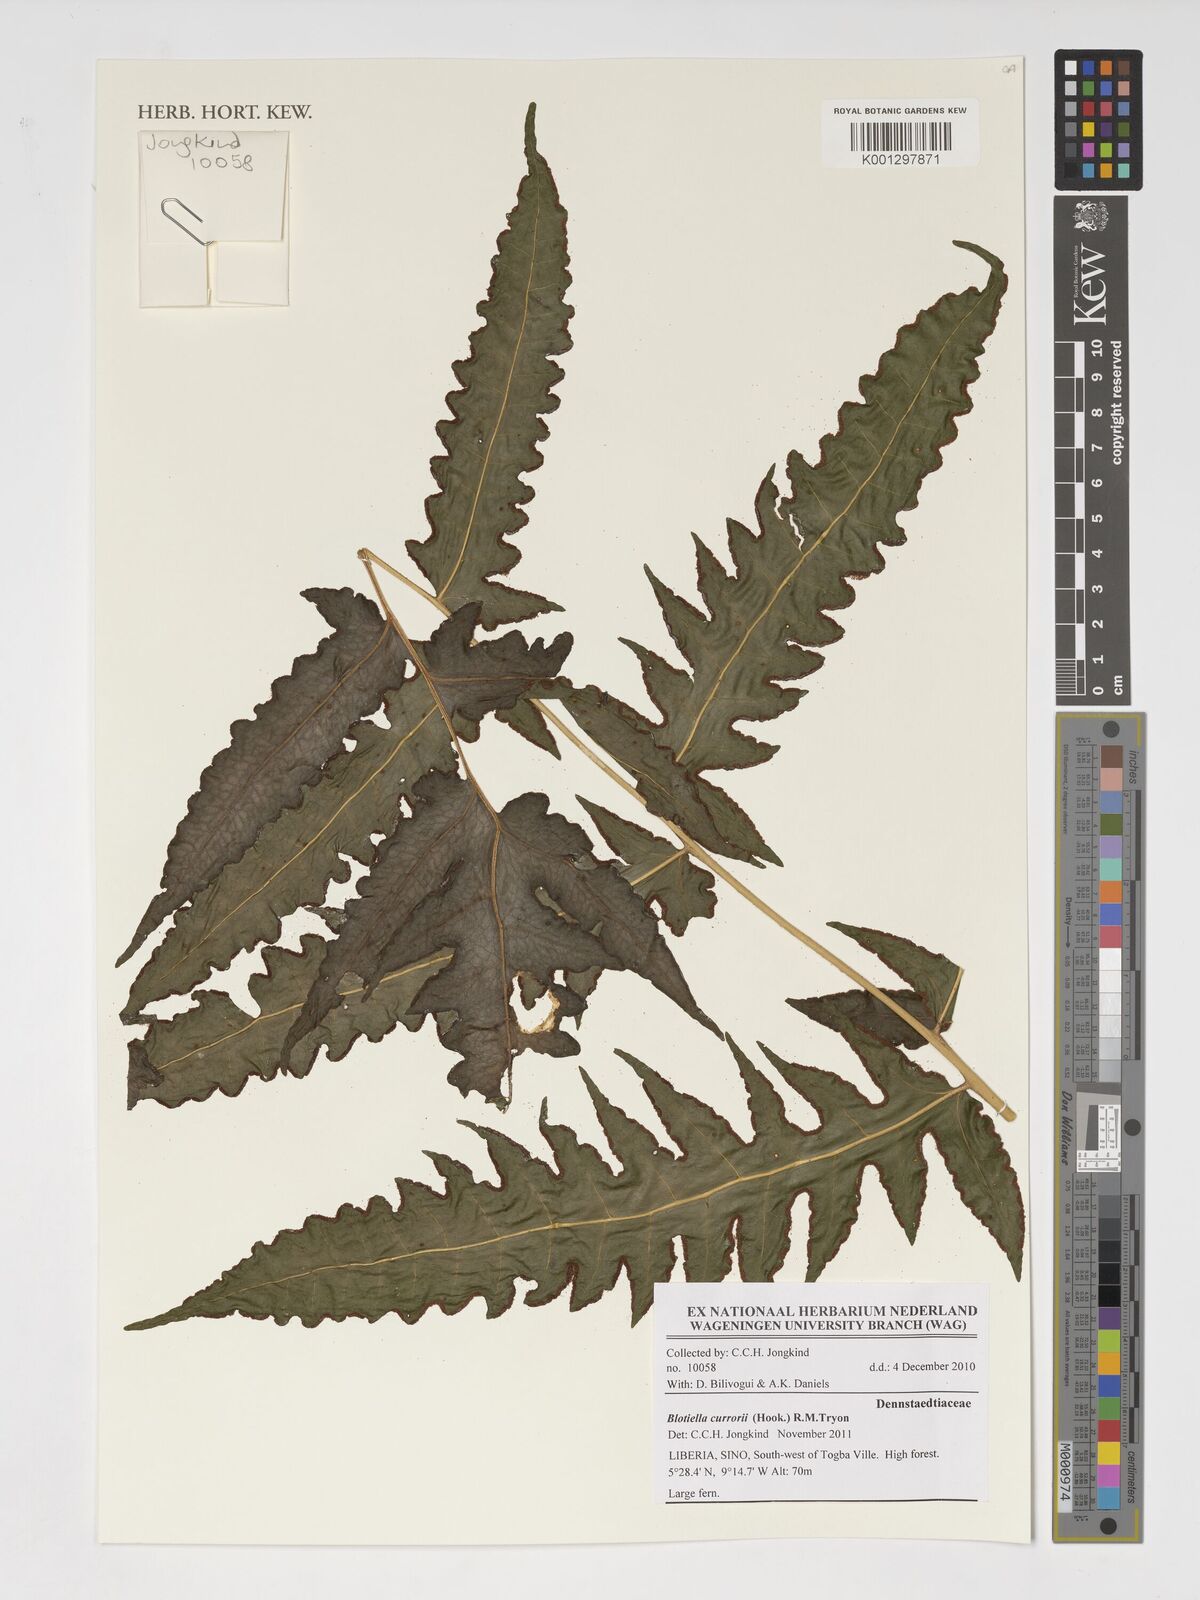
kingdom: Plantae
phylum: Tracheophyta
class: Polypodiopsida
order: Polypodiales
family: Dennstaedtiaceae
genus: Blotiella
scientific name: Blotiella currorii
